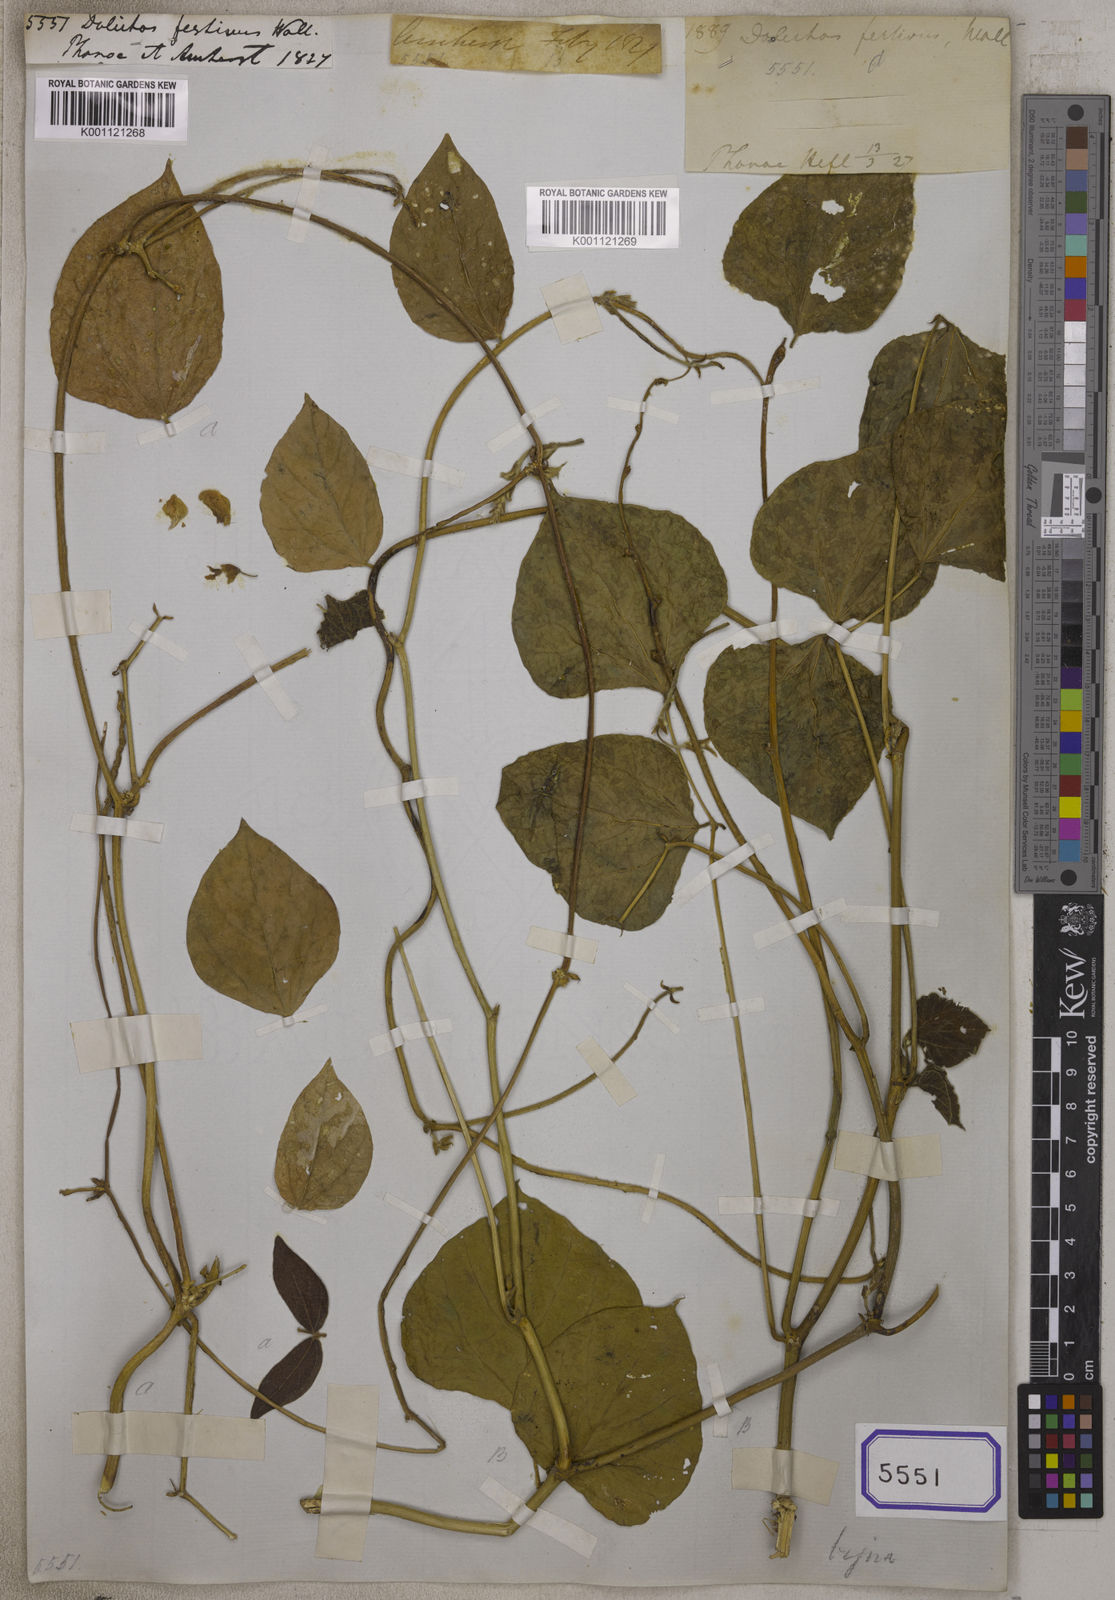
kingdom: Plantae
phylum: Tracheophyta
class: Magnoliopsida
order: Fabales
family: Fabaceae
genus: Lablab
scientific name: Lablab purpureus
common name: Lablab-bean
